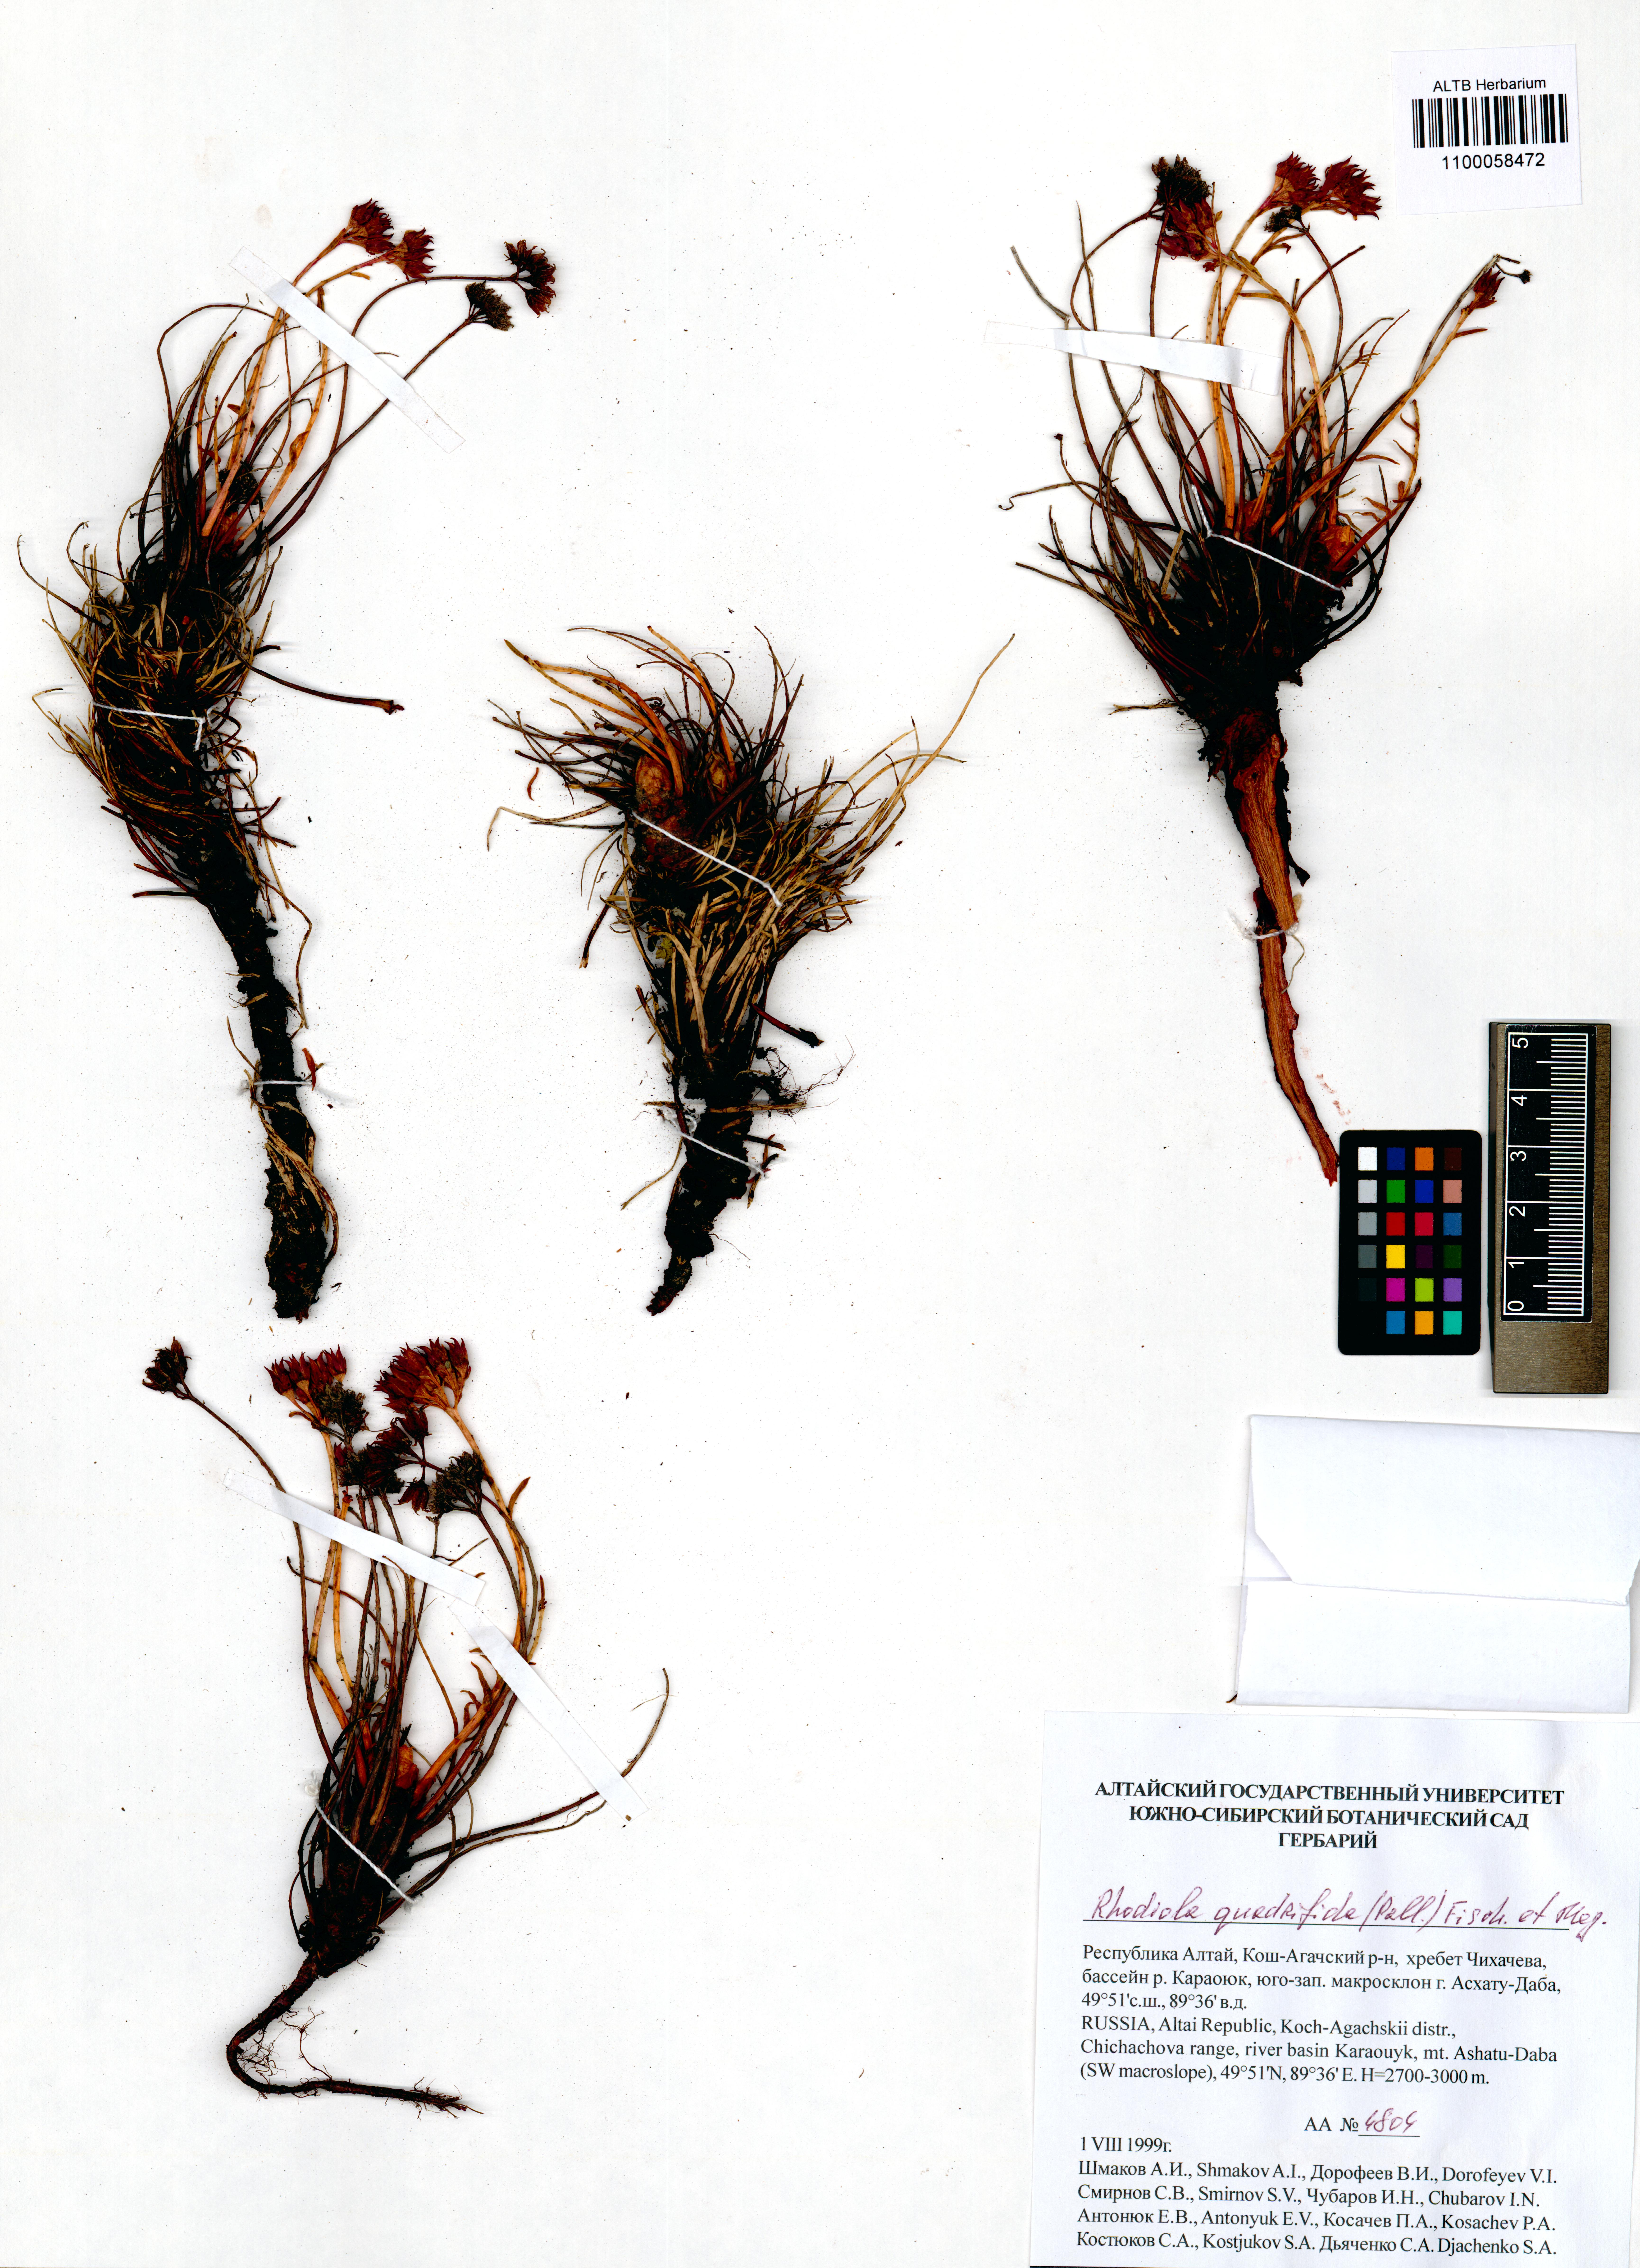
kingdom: Plantae
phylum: Tracheophyta
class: Magnoliopsida
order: Saxifragales
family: Crassulaceae
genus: Rhodiola
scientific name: Rhodiola quadrifida
